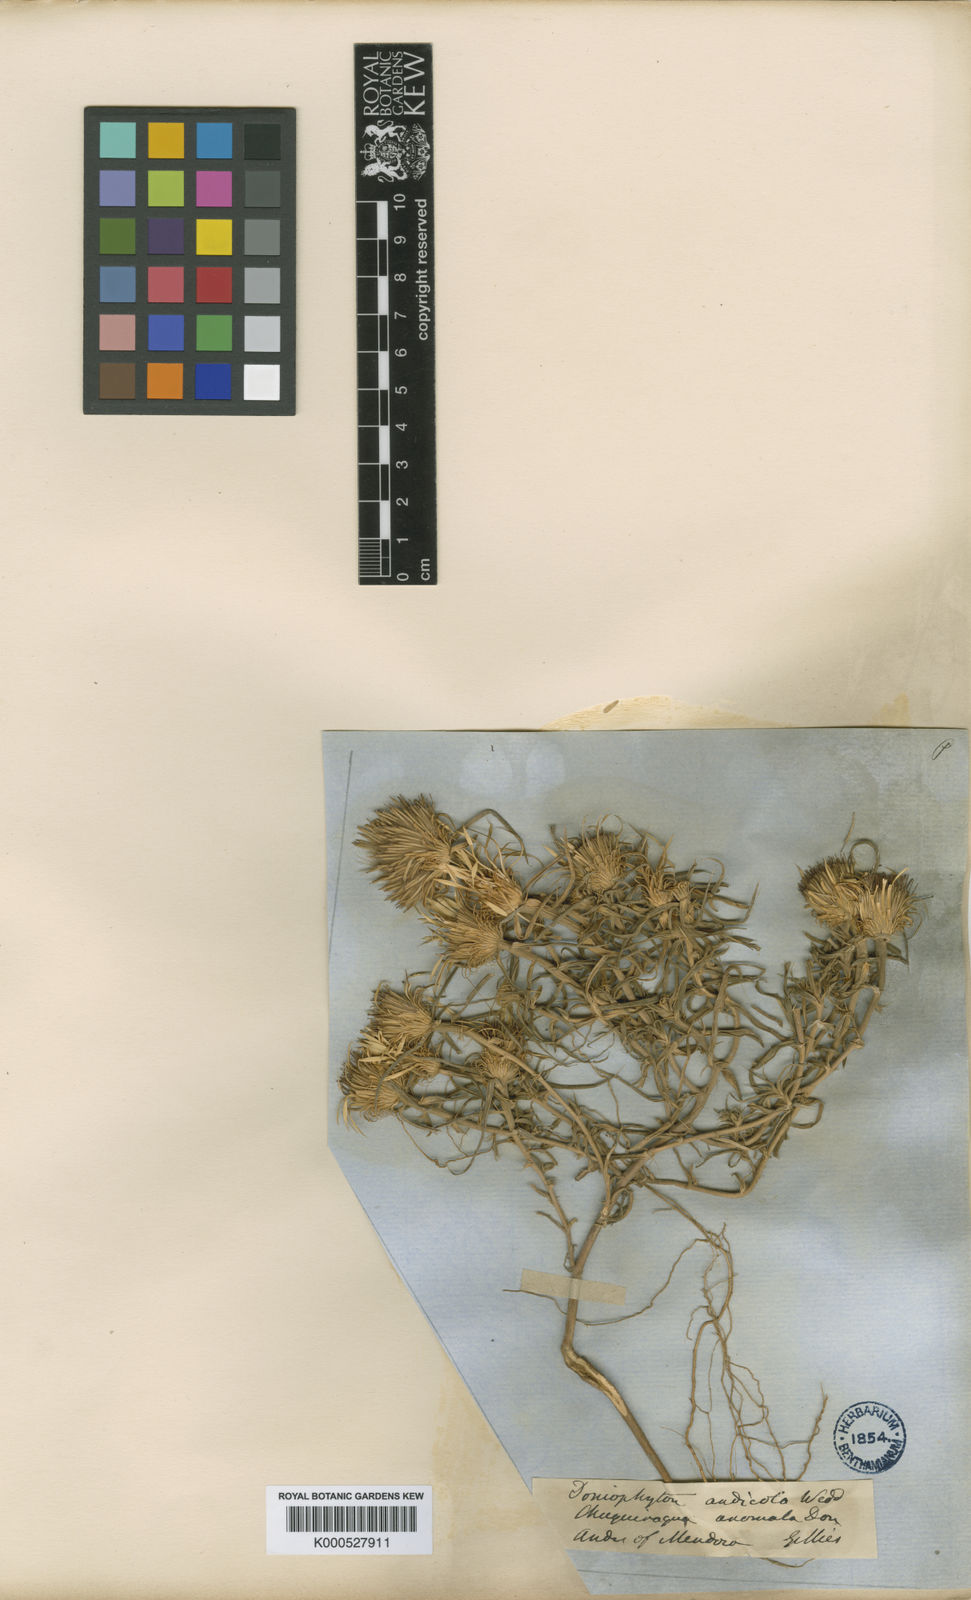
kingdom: Plantae
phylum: Tracheophyta
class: Magnoliopsida
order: Asterales
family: Asteraceae
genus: Doniophyton
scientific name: Doniophyton anomalum
